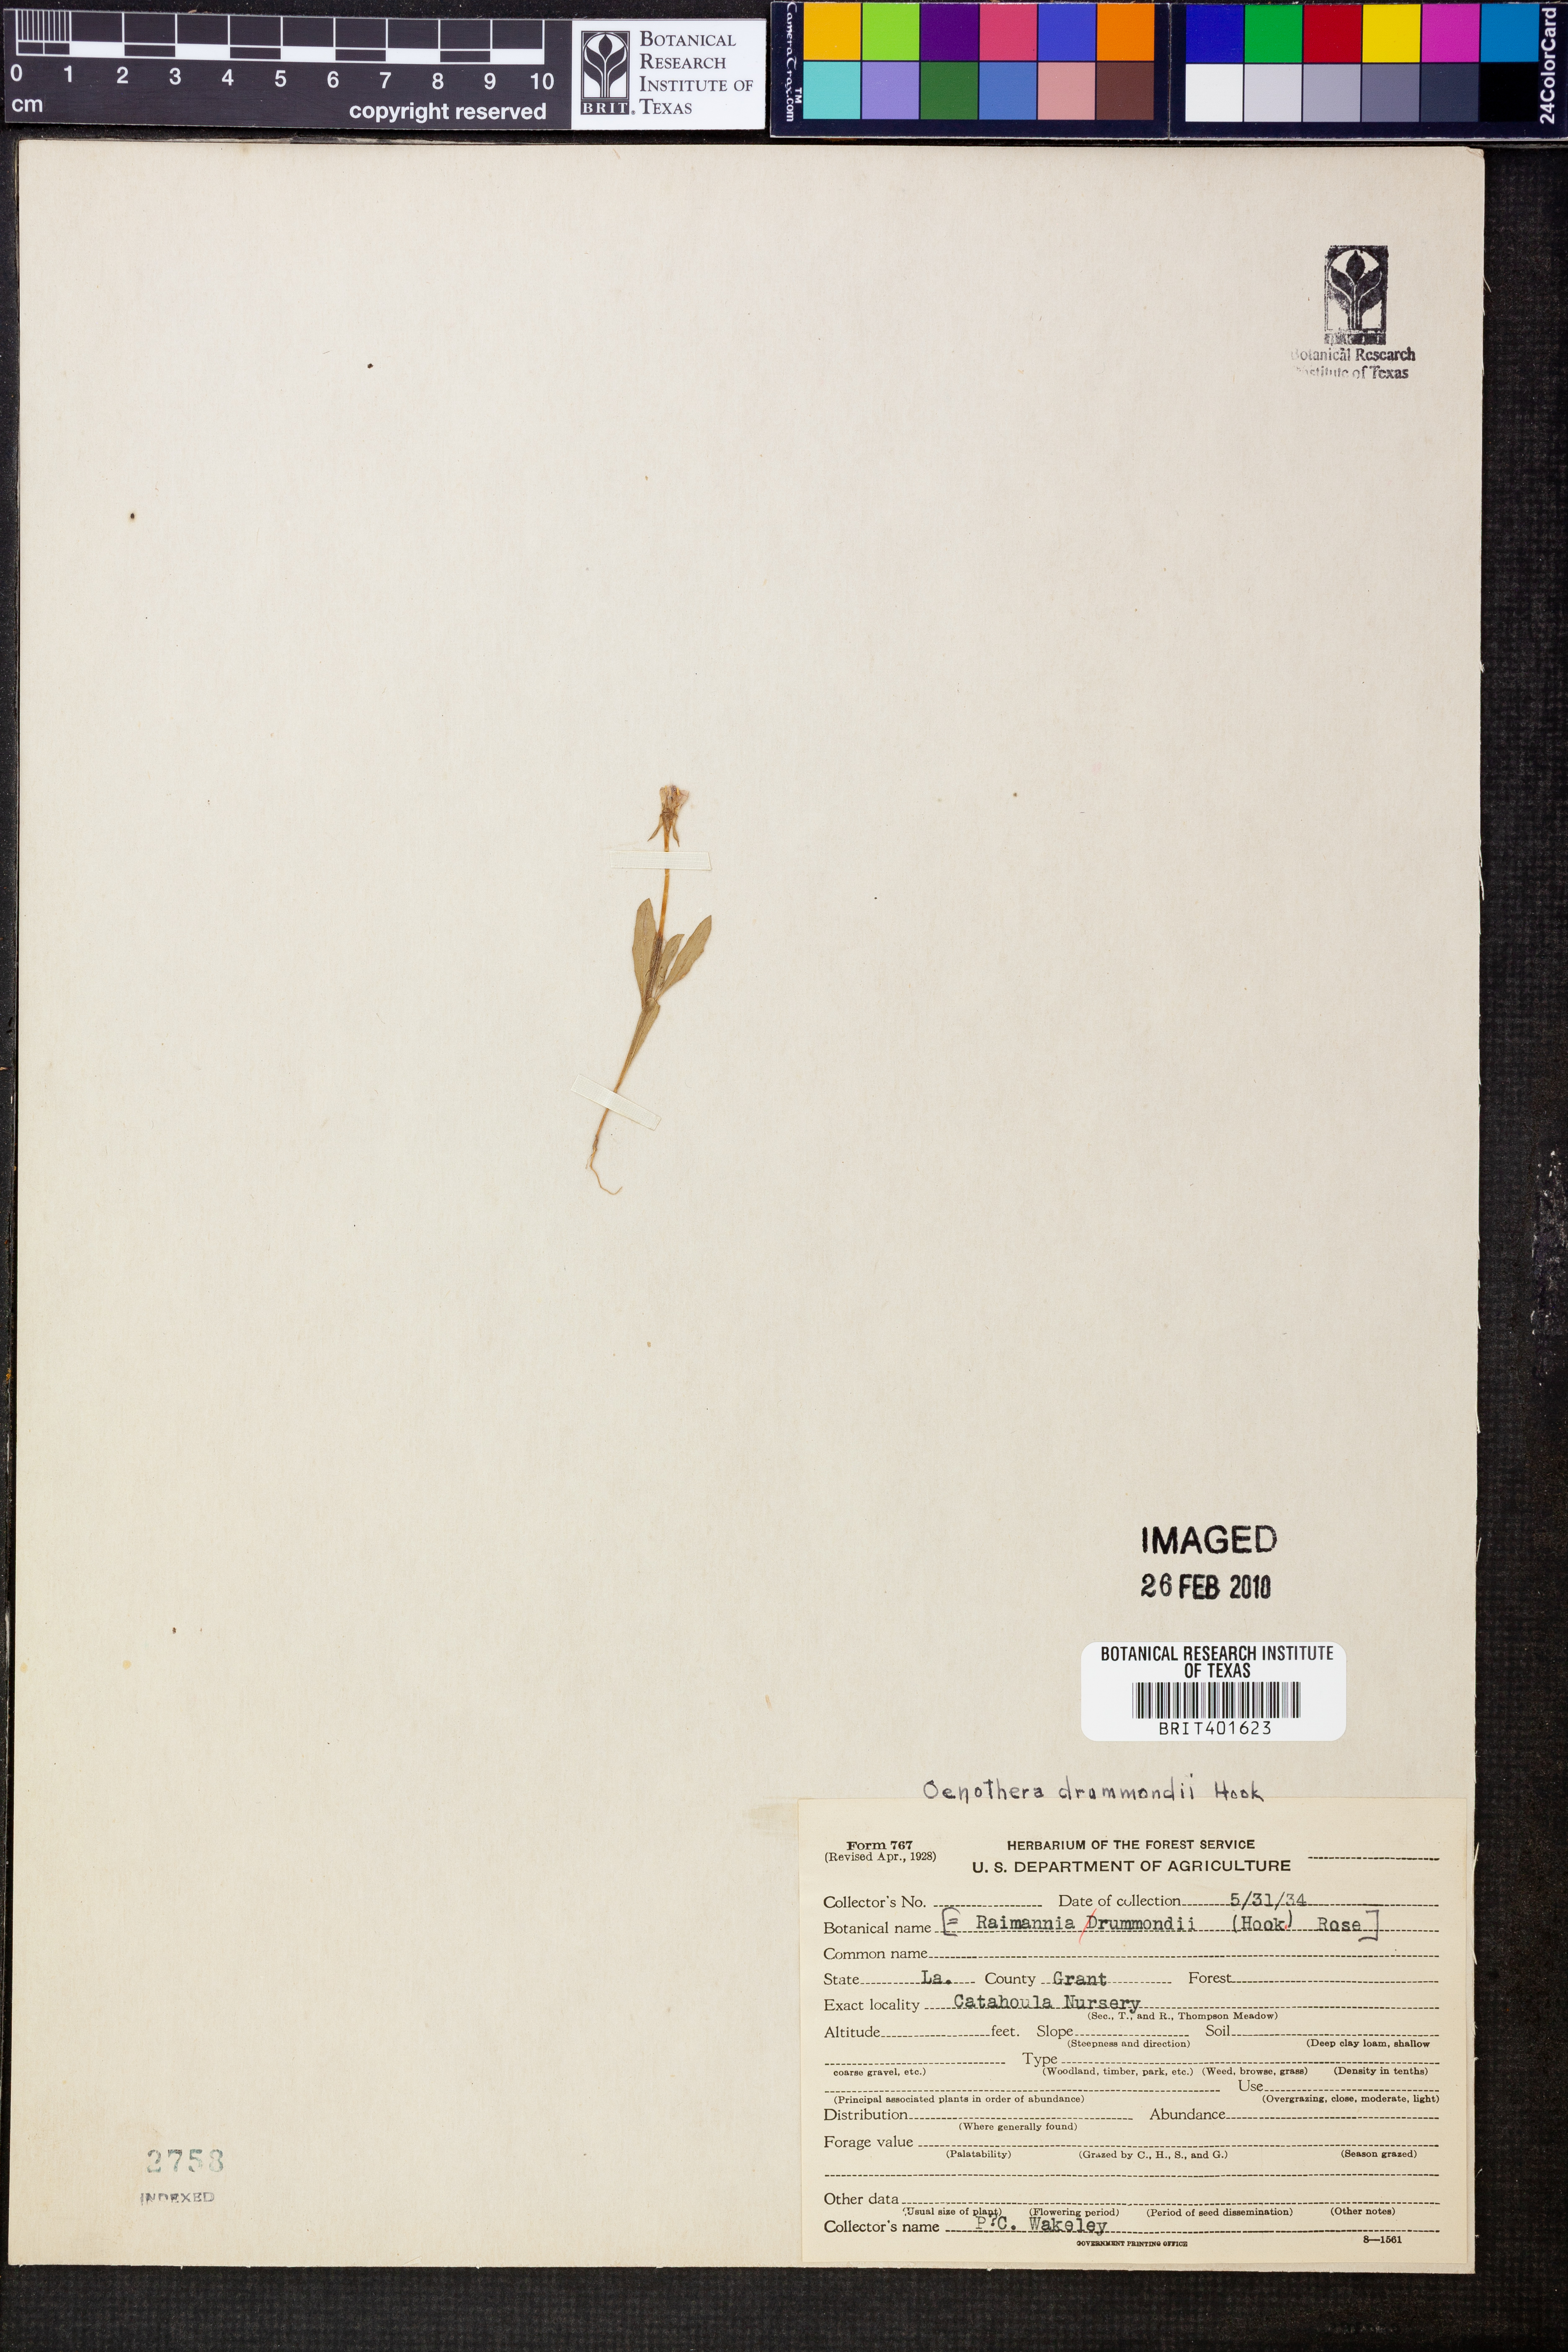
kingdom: Plantae
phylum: Tracheophyta
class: Magnoliopsida
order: Myrtales
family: Onagraceae
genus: Oenothera
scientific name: Oenothera drummondii
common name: Beach evening-primrose
